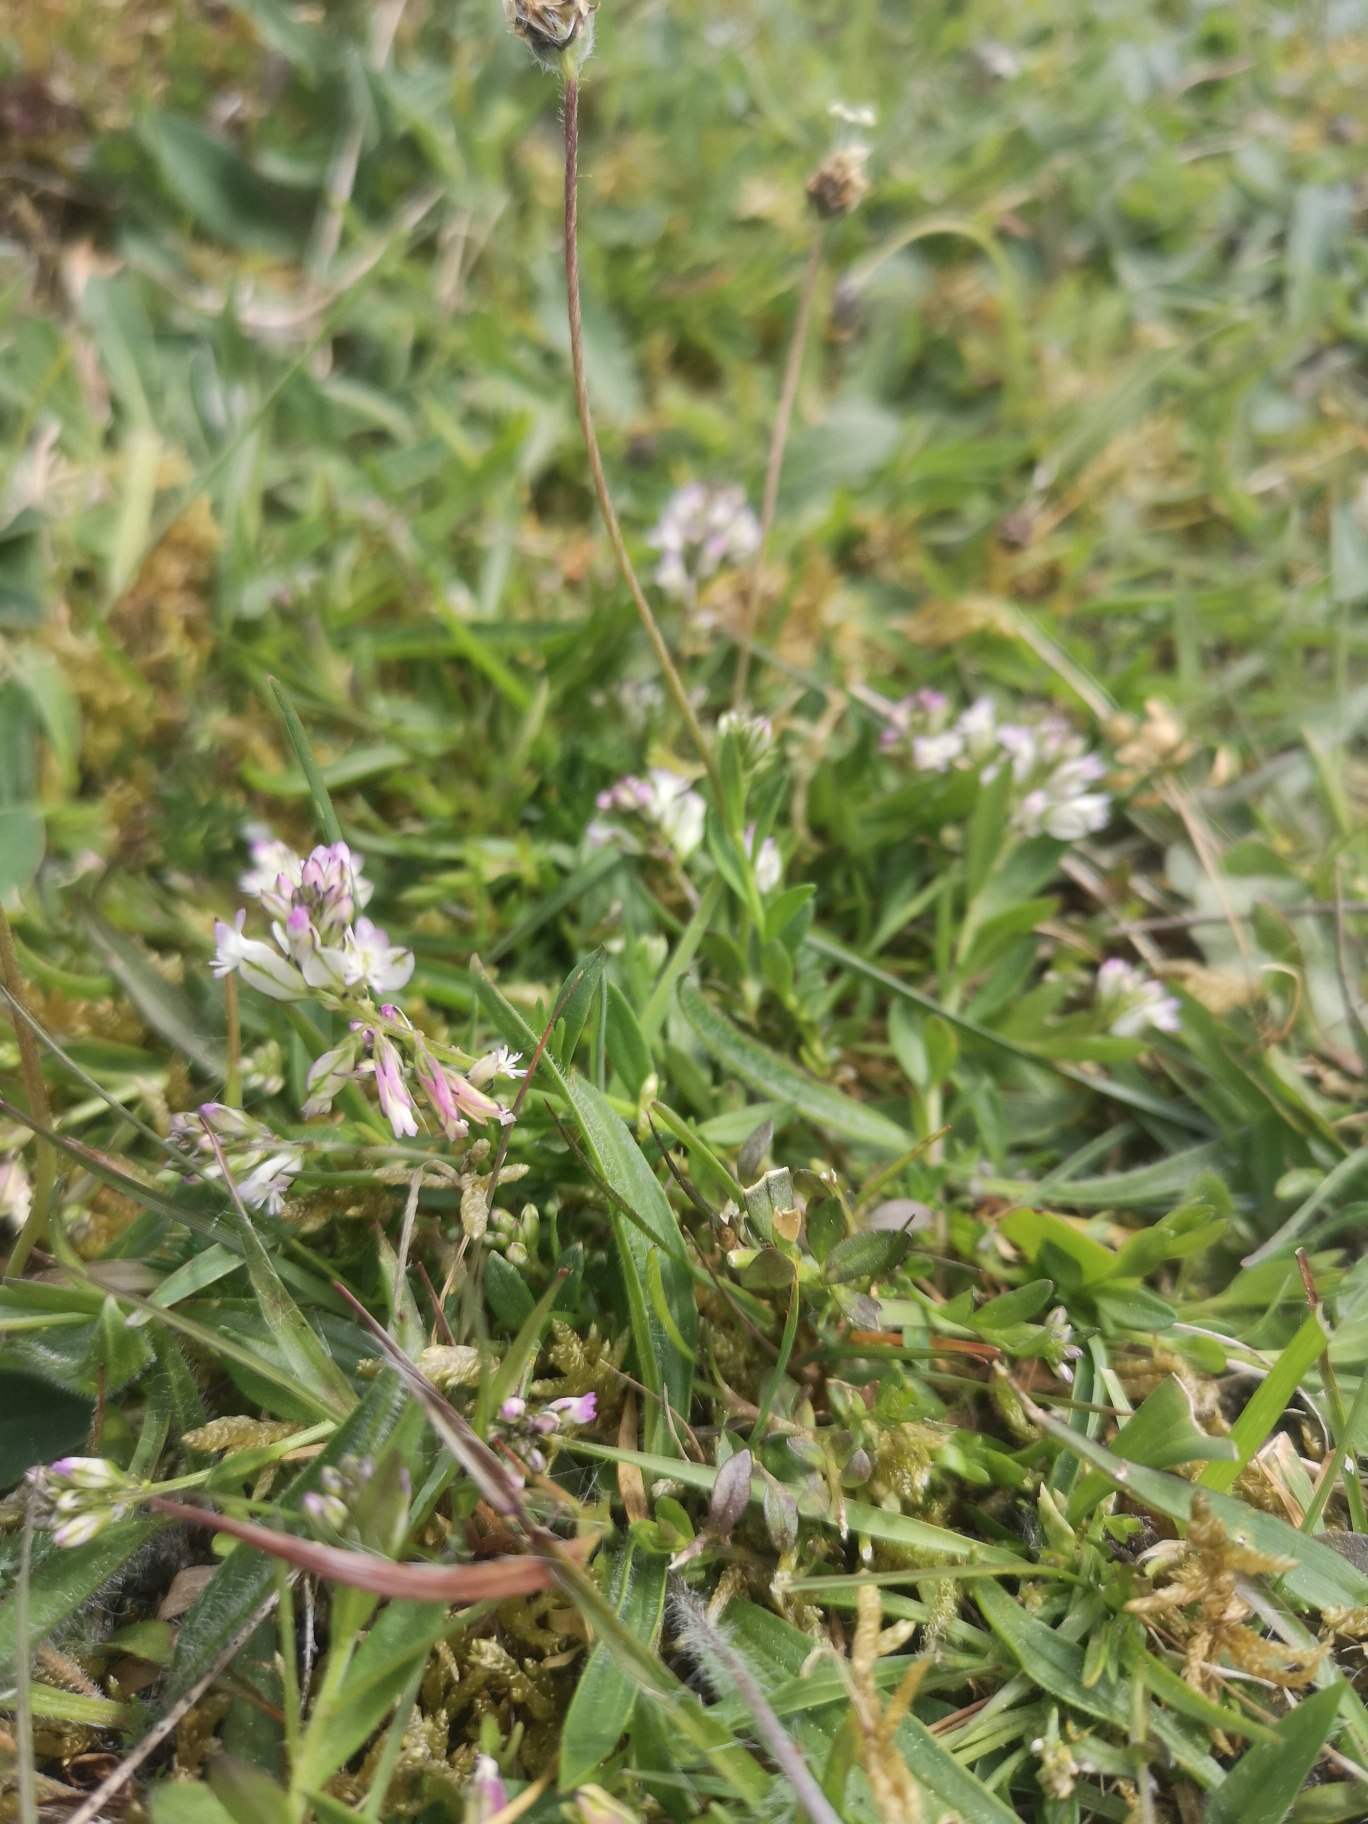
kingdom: Plantae
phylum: Tracheophyta
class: Magnoliopsida
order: Fabales
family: Polygalaceae
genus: Polygala
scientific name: Polygala vulgaris
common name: Almindelig mælkeurt
